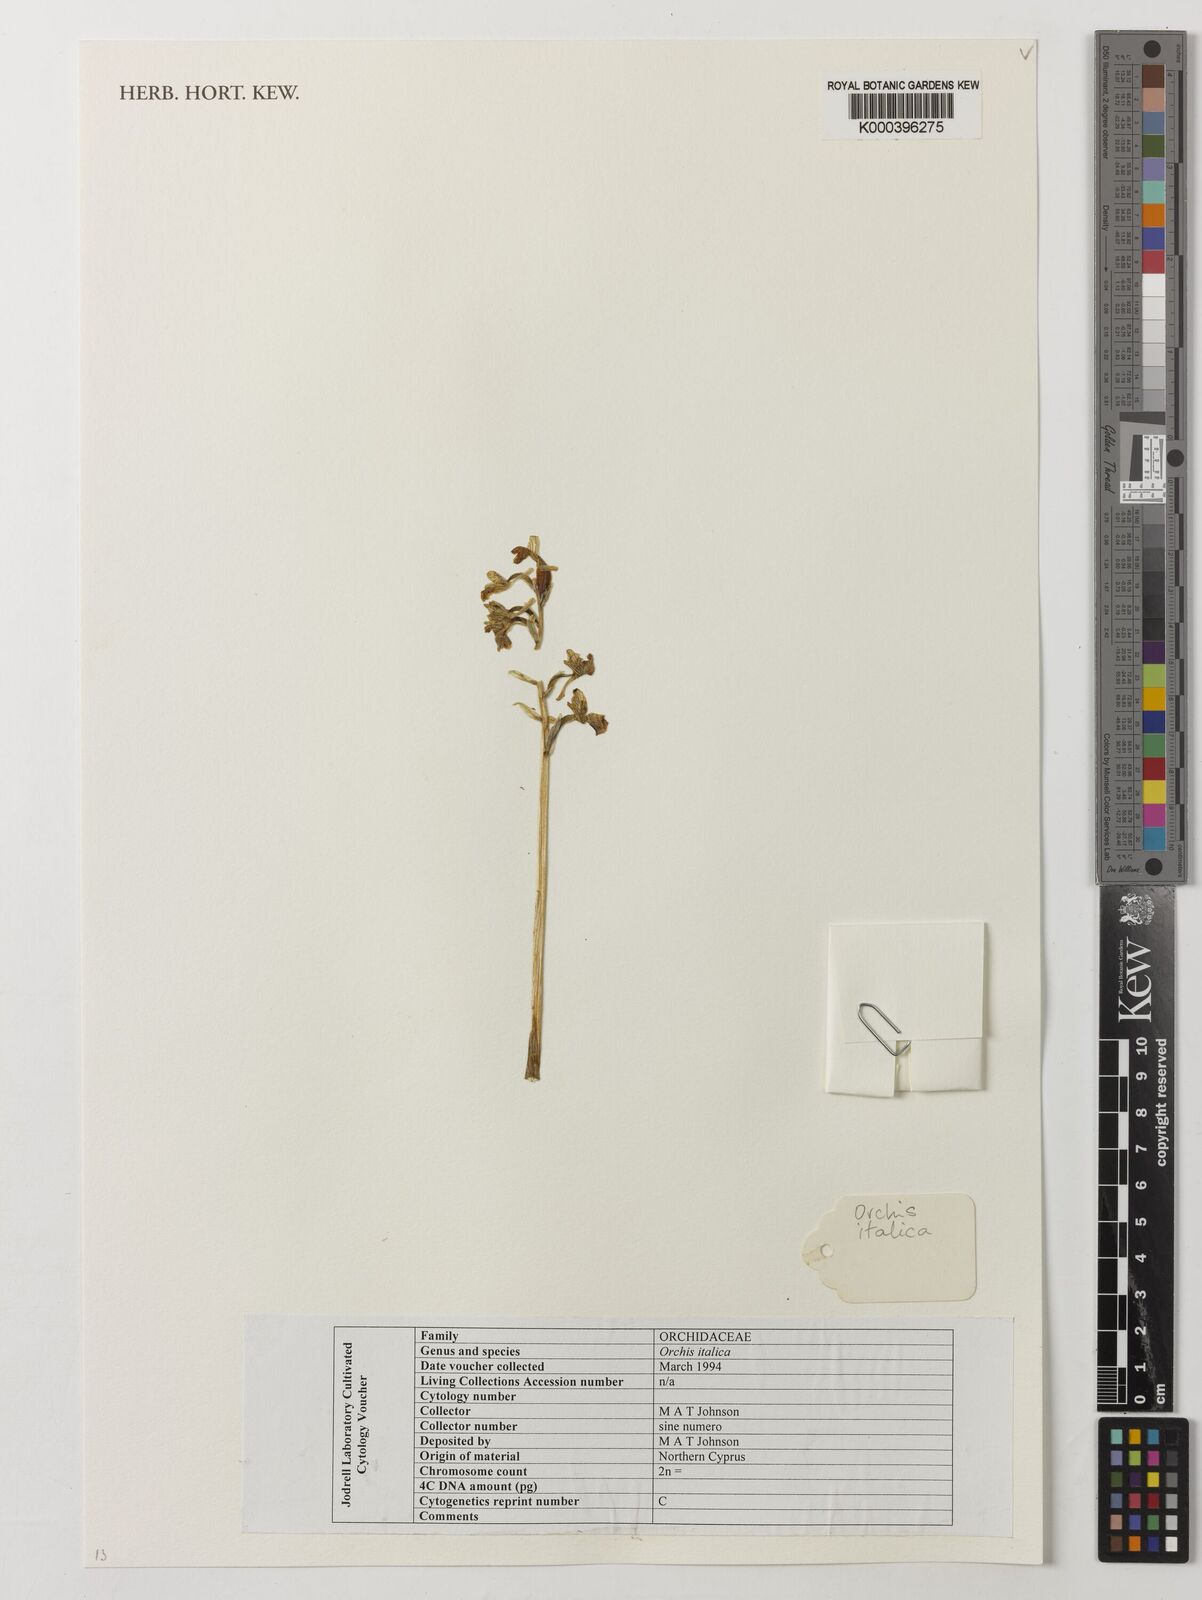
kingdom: Plantae
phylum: Tracheophyta
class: Liliopsida
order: Asparagales
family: Orchidaceae
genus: Orchis
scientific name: Orchis italica
